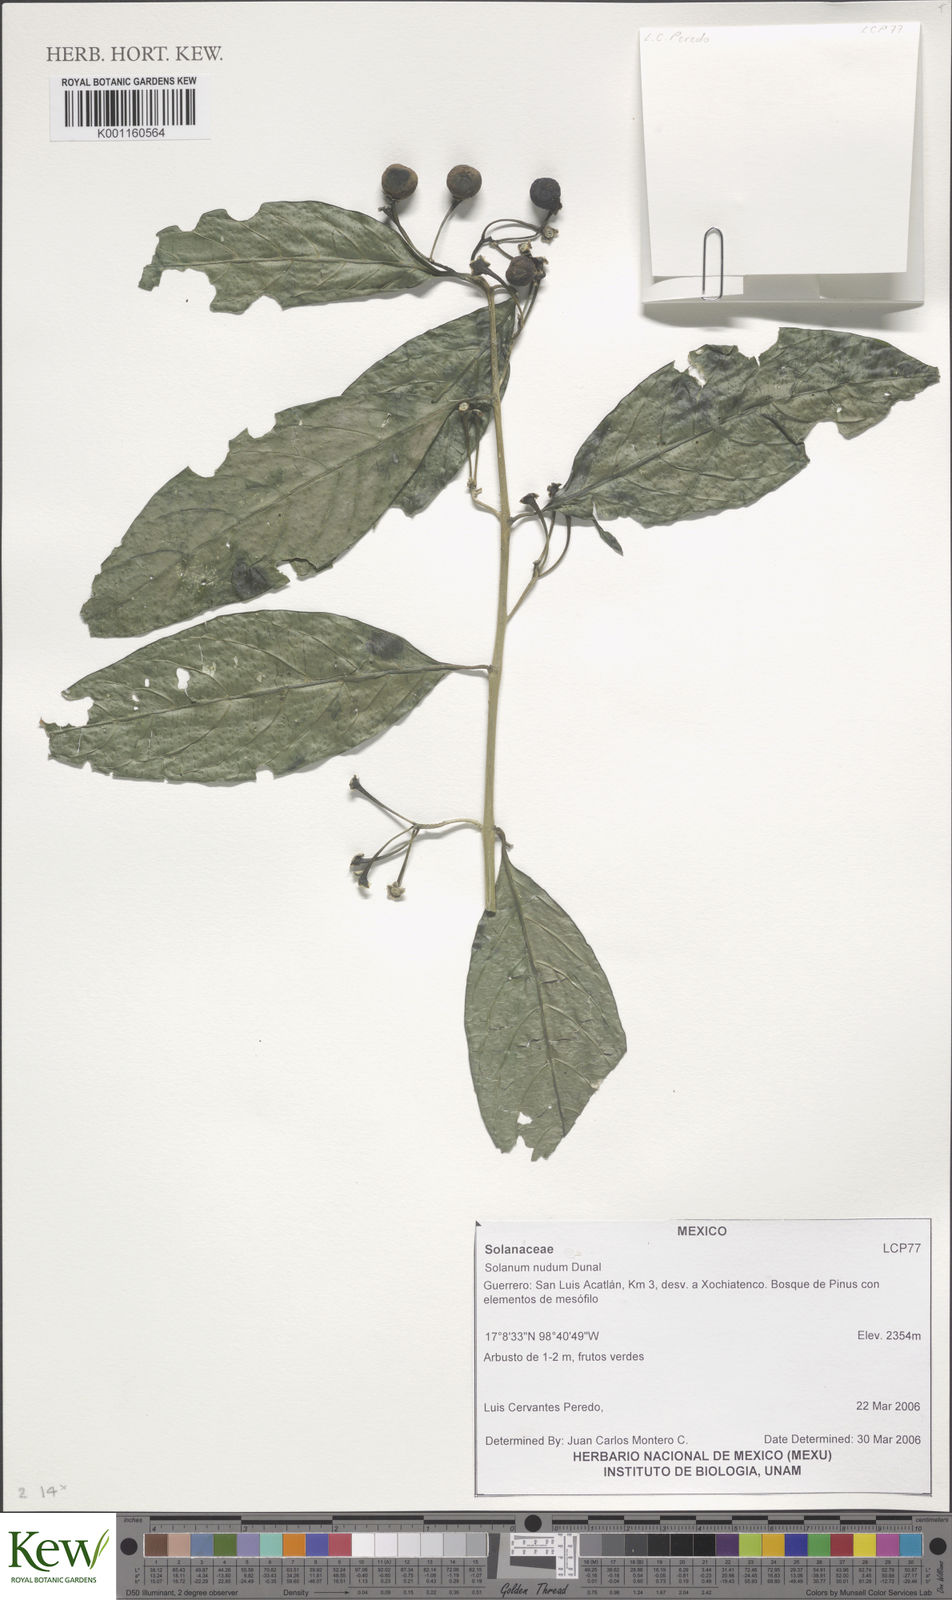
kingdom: Plantae
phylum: Tracheophyta
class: Magnoliopsida
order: Solanales
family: Solanaceae
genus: Solanum
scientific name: Solanum nudum
